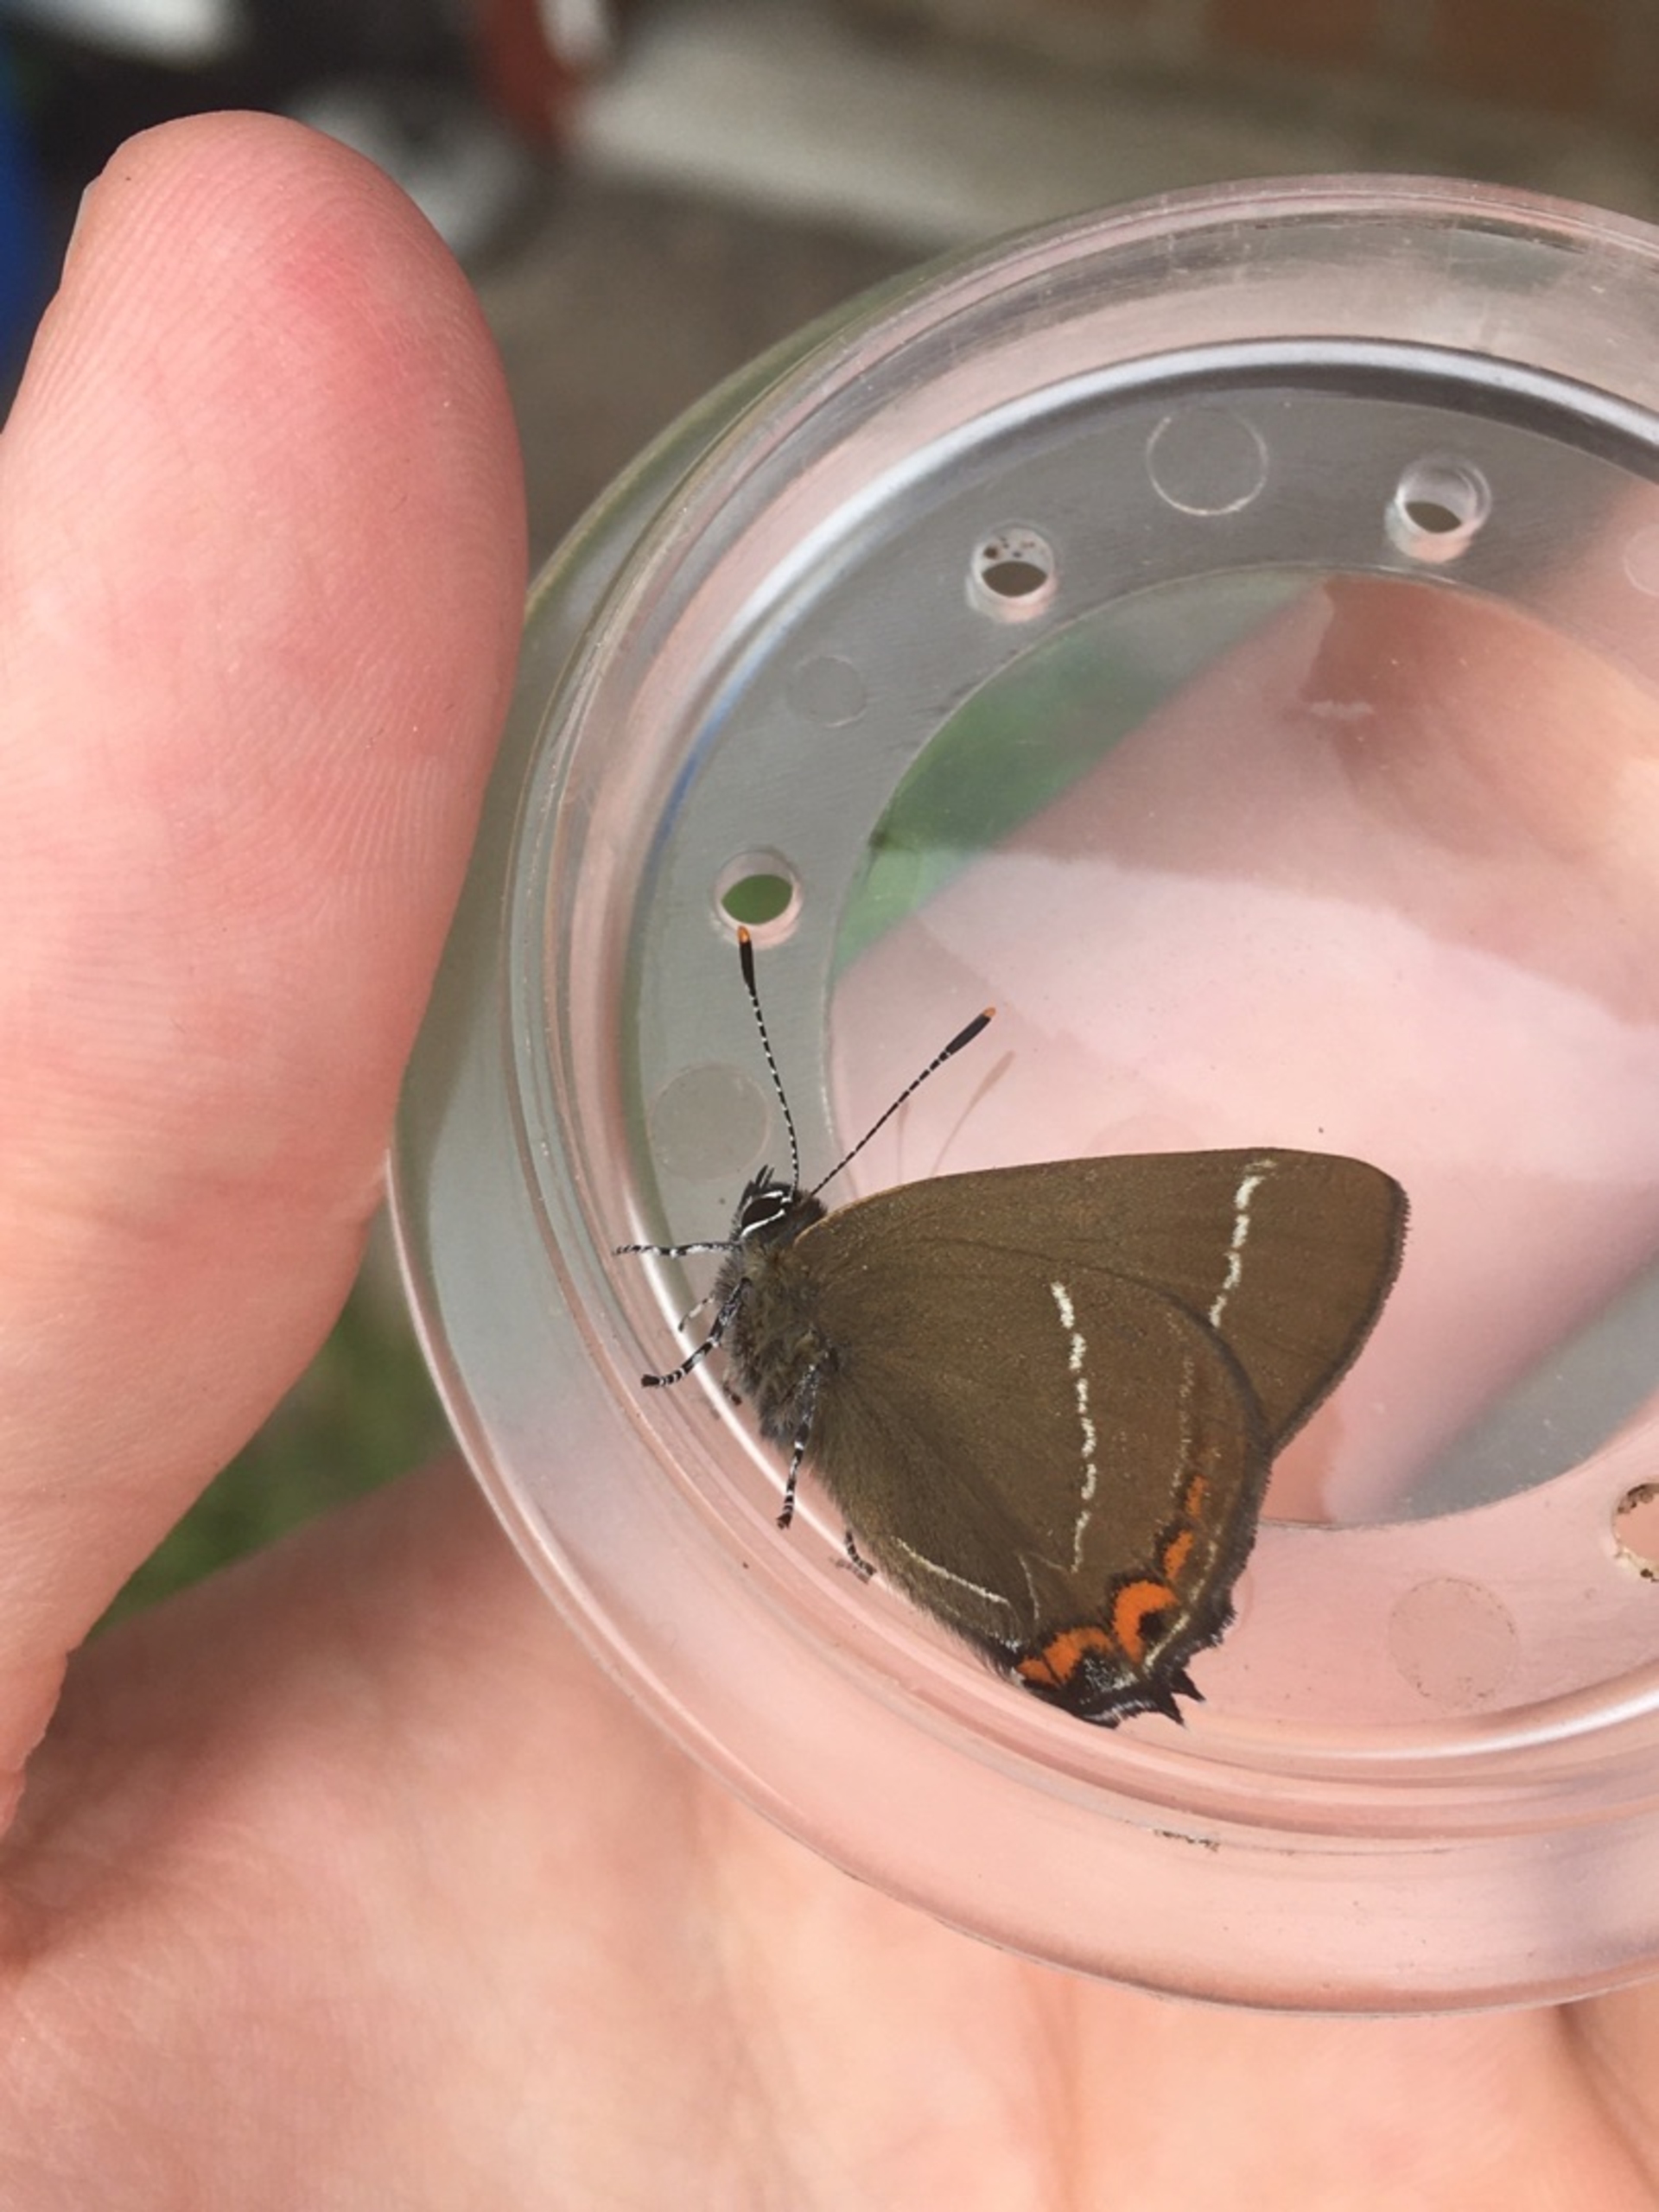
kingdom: Animalia
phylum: Arthropoda
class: Insecta
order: Lepidoptera
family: Lycaenidae
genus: Satyrium
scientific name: Satyrium w-album
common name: Det hvide W
